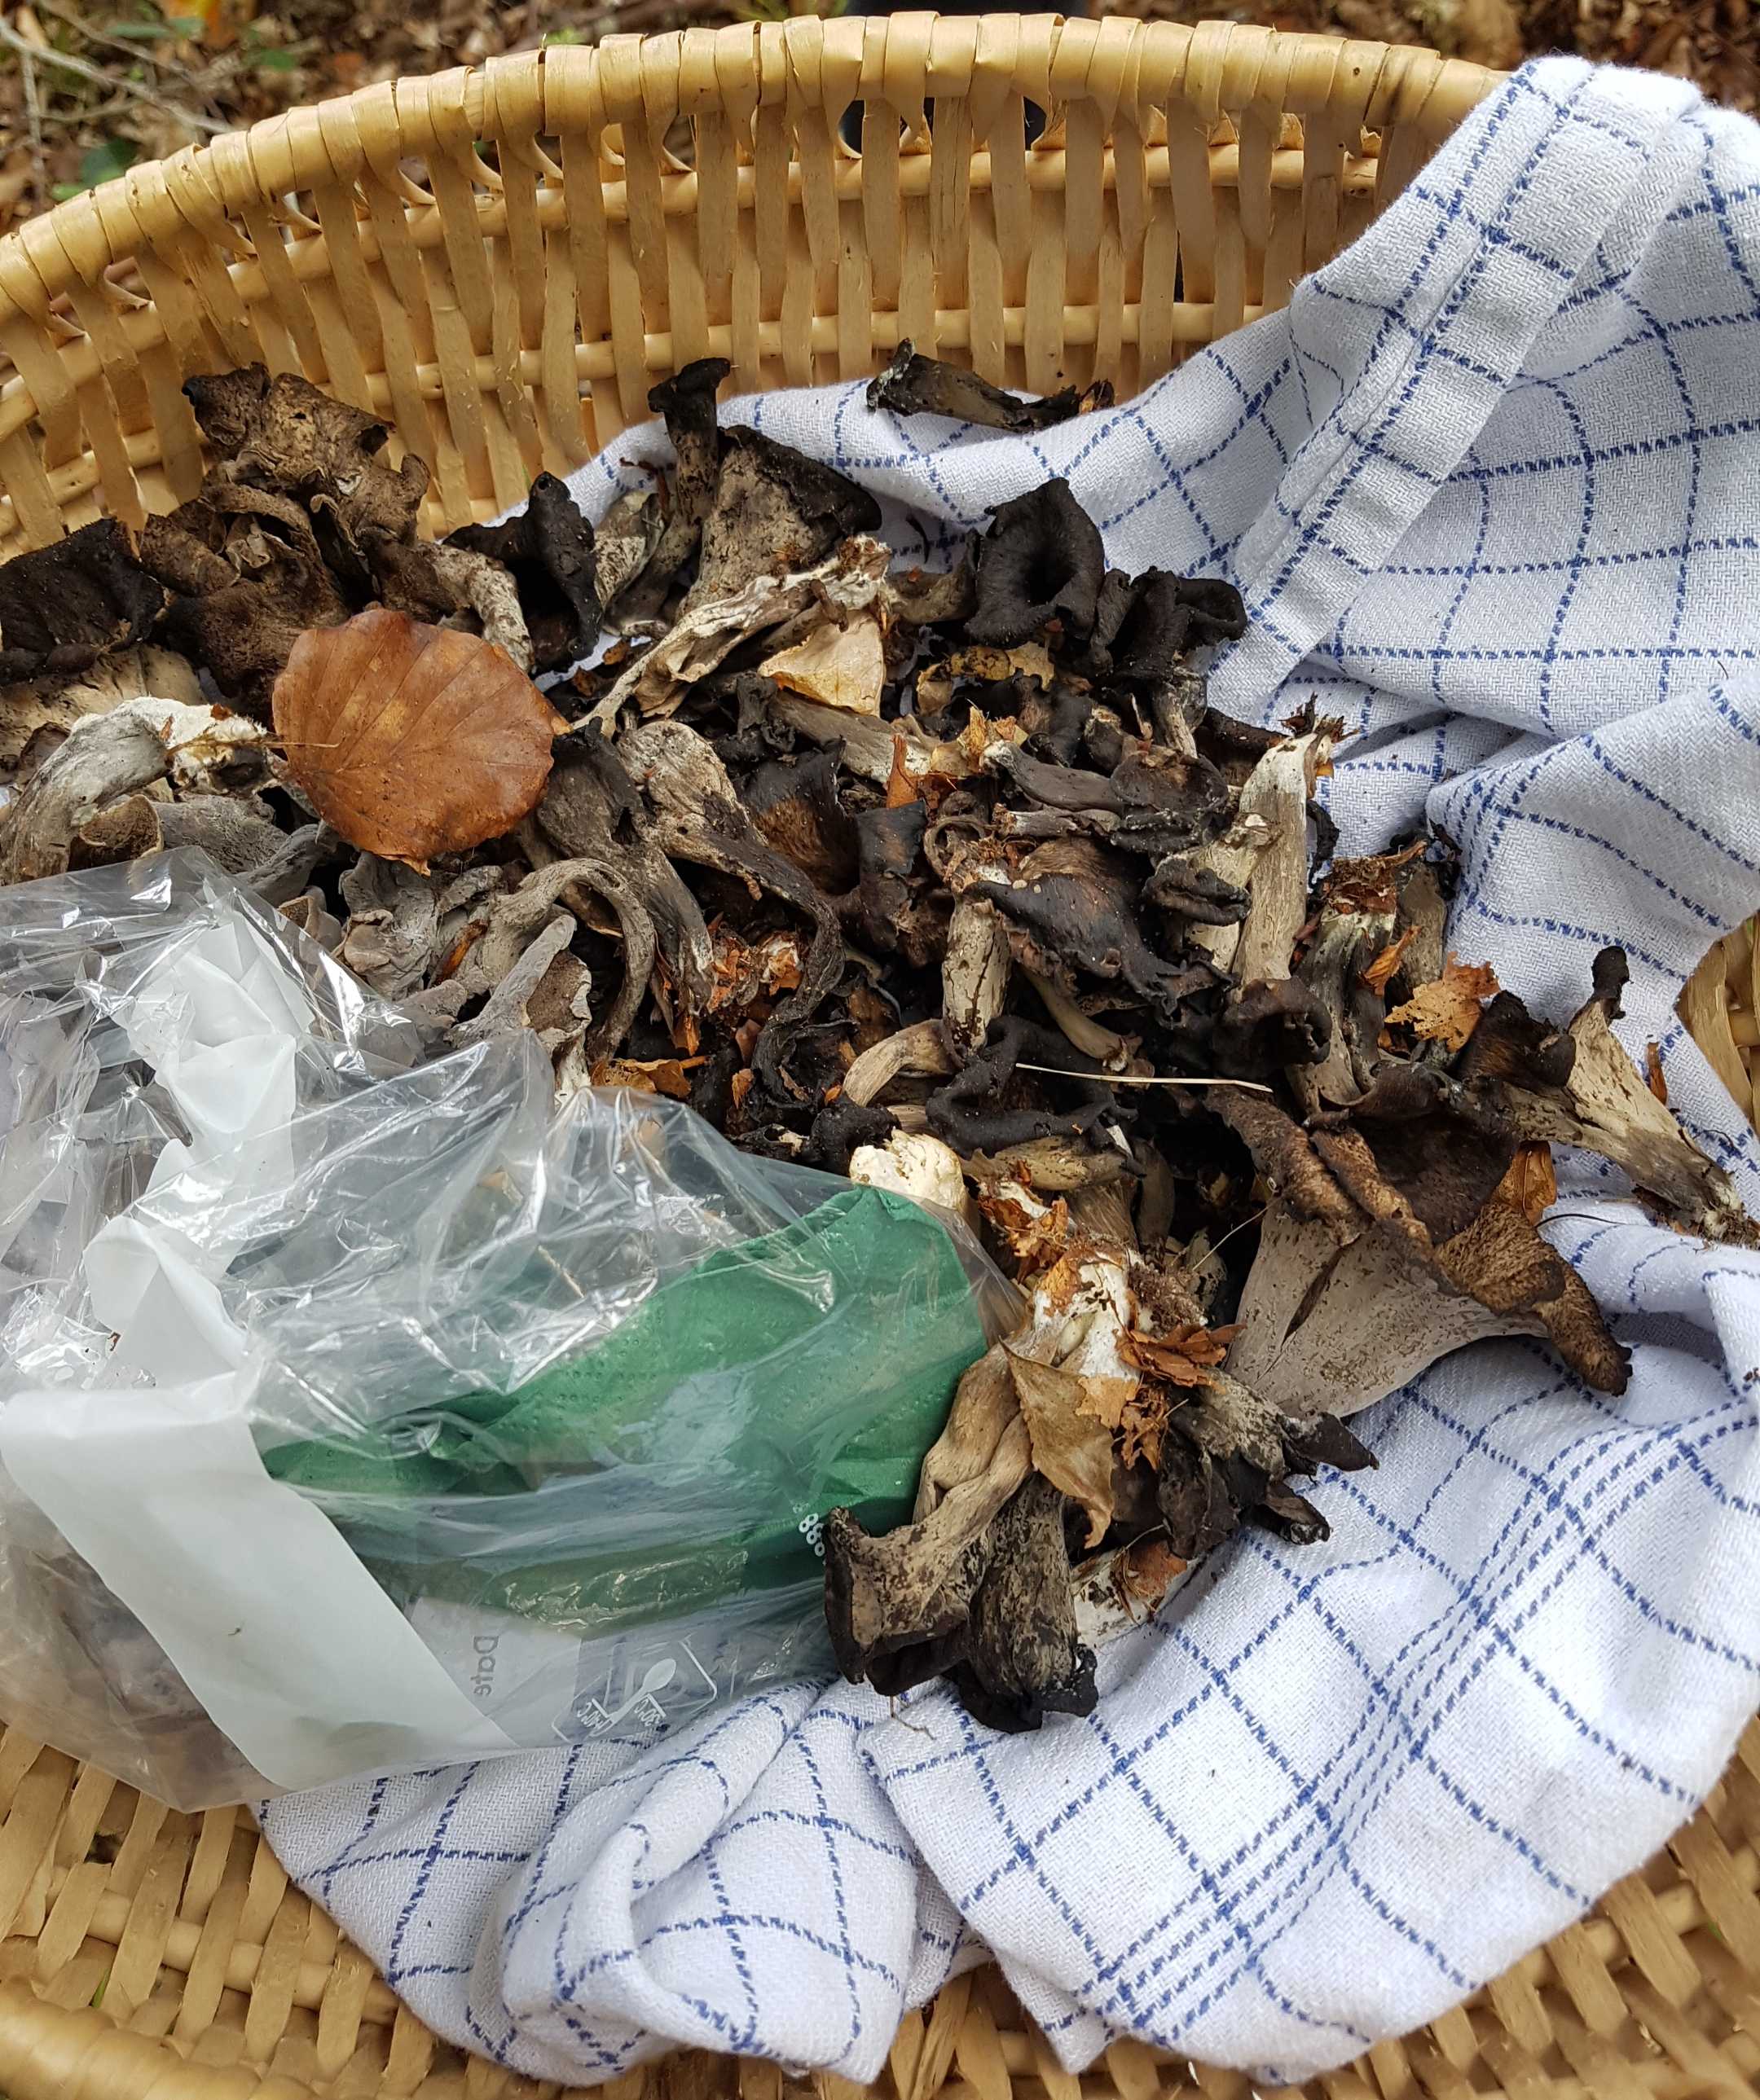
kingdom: Fungi
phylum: Basidiomycota
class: Agaricomycetes
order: Cantharellales
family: Hydnaceae
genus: Craterellus
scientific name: Craterellus cornucopioides
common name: trompetsvamp
